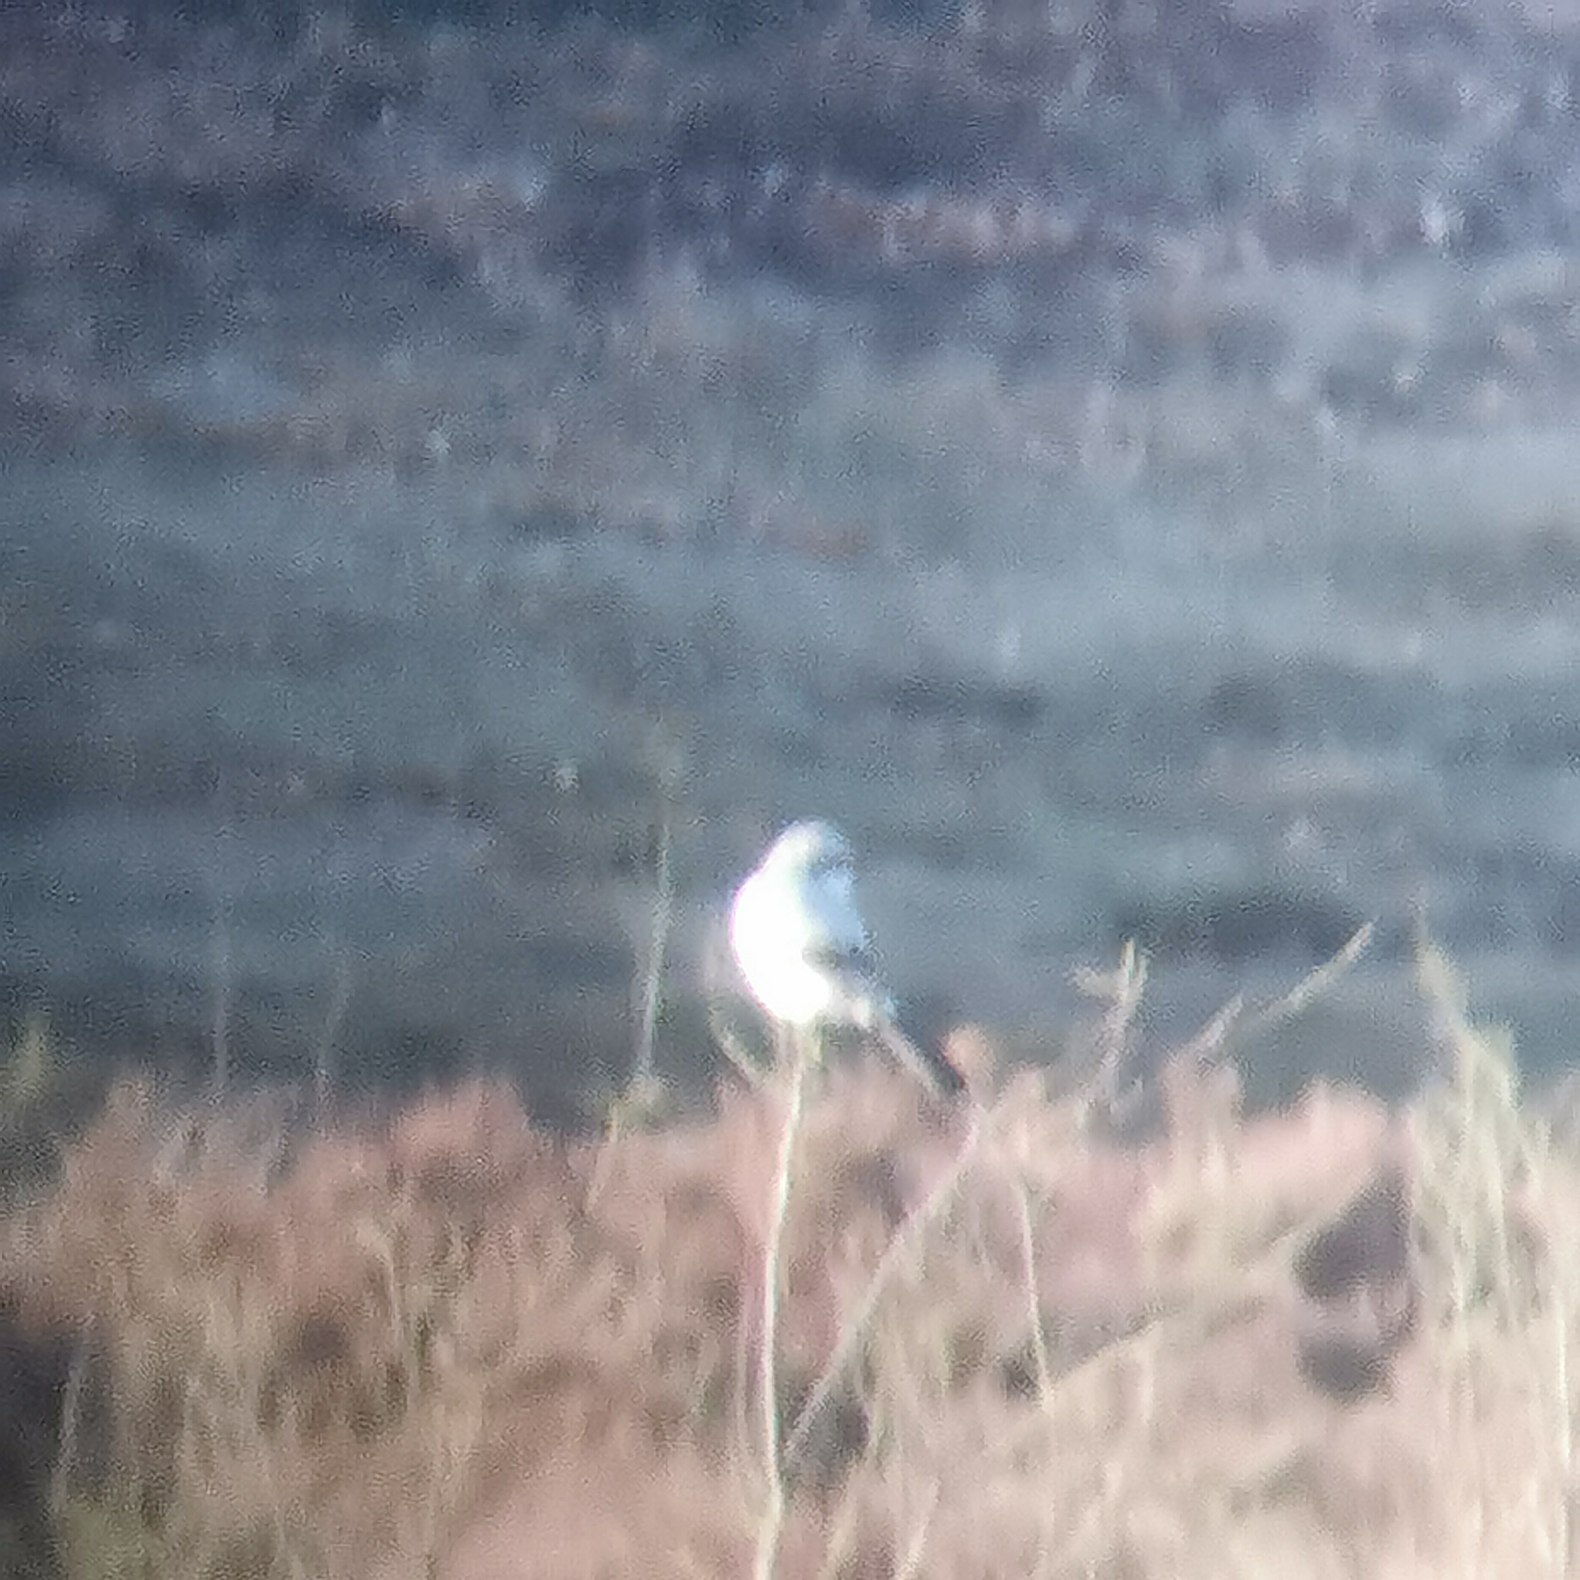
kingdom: Animalia
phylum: Chordata
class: Aves
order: Passeriformes
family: Laniidae
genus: Lanius
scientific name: Lanius excubitor
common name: Stor tornskade
